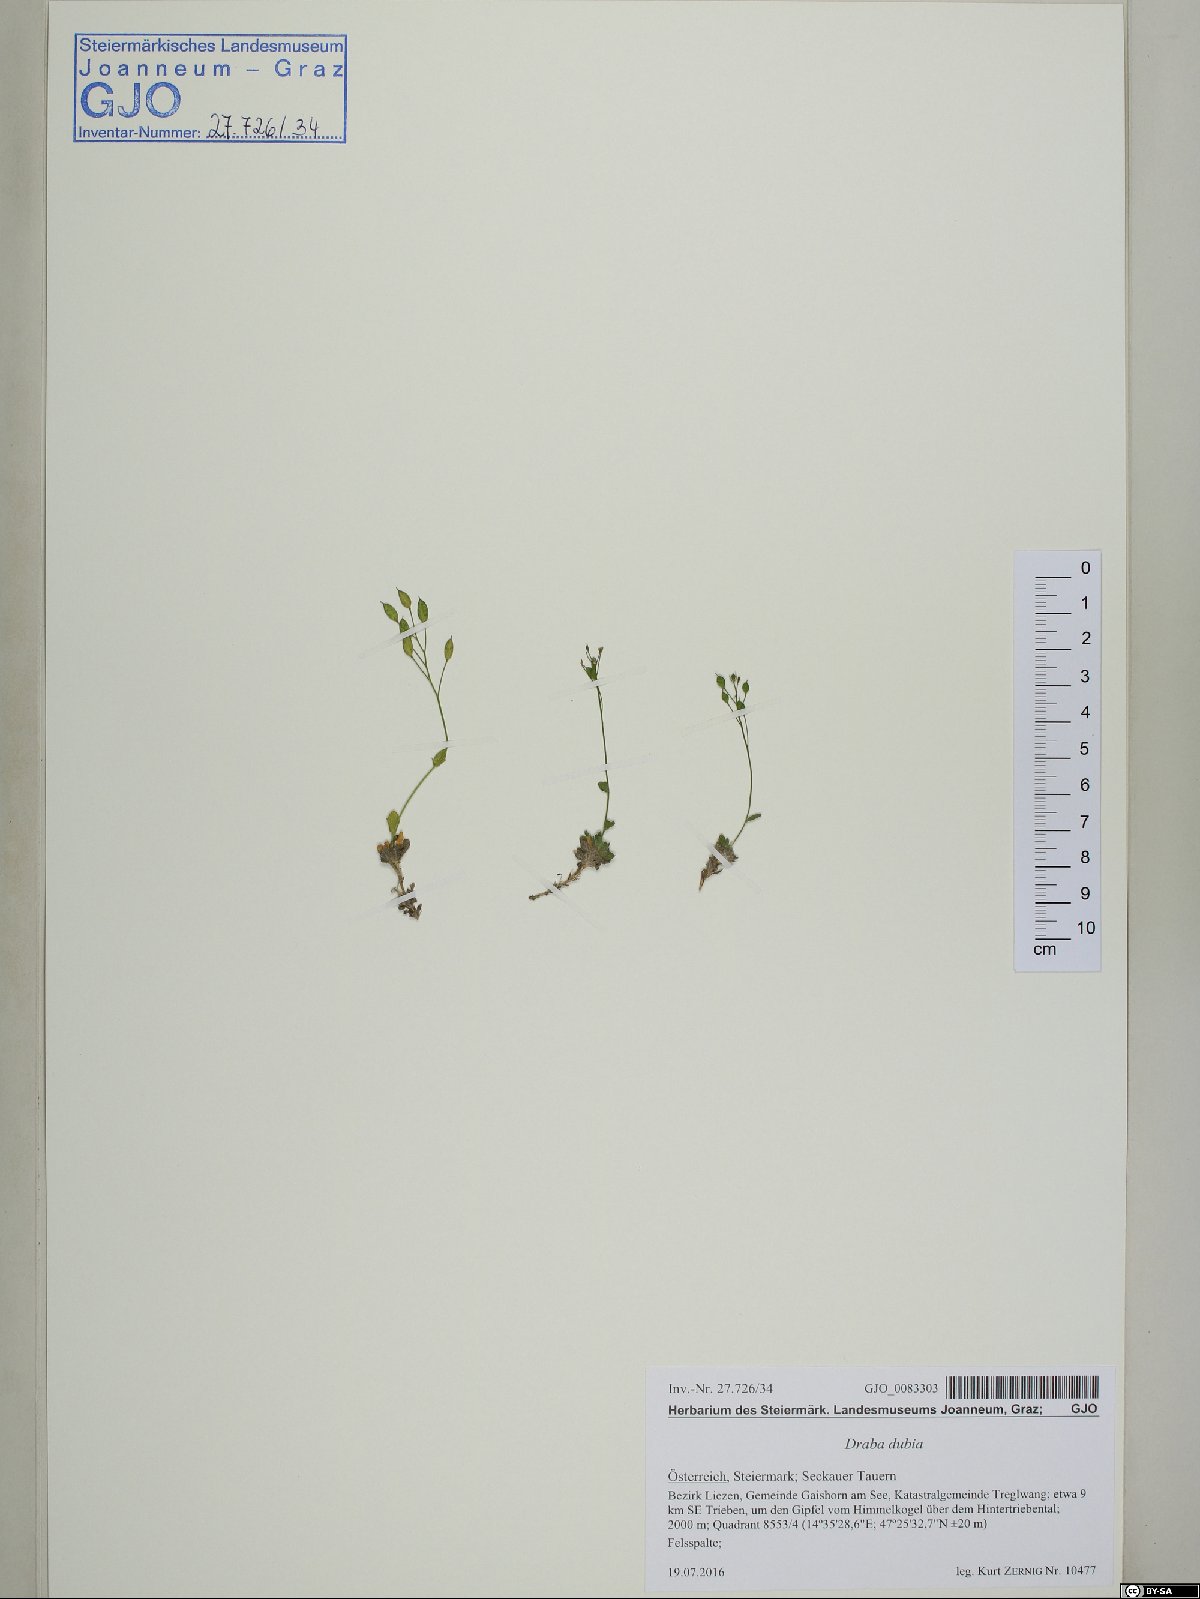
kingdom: Plantae
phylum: Tracheophyta
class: Magnoliopsida
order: Brassicales
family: Brassicaceae
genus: Draba
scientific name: Draba dubia
